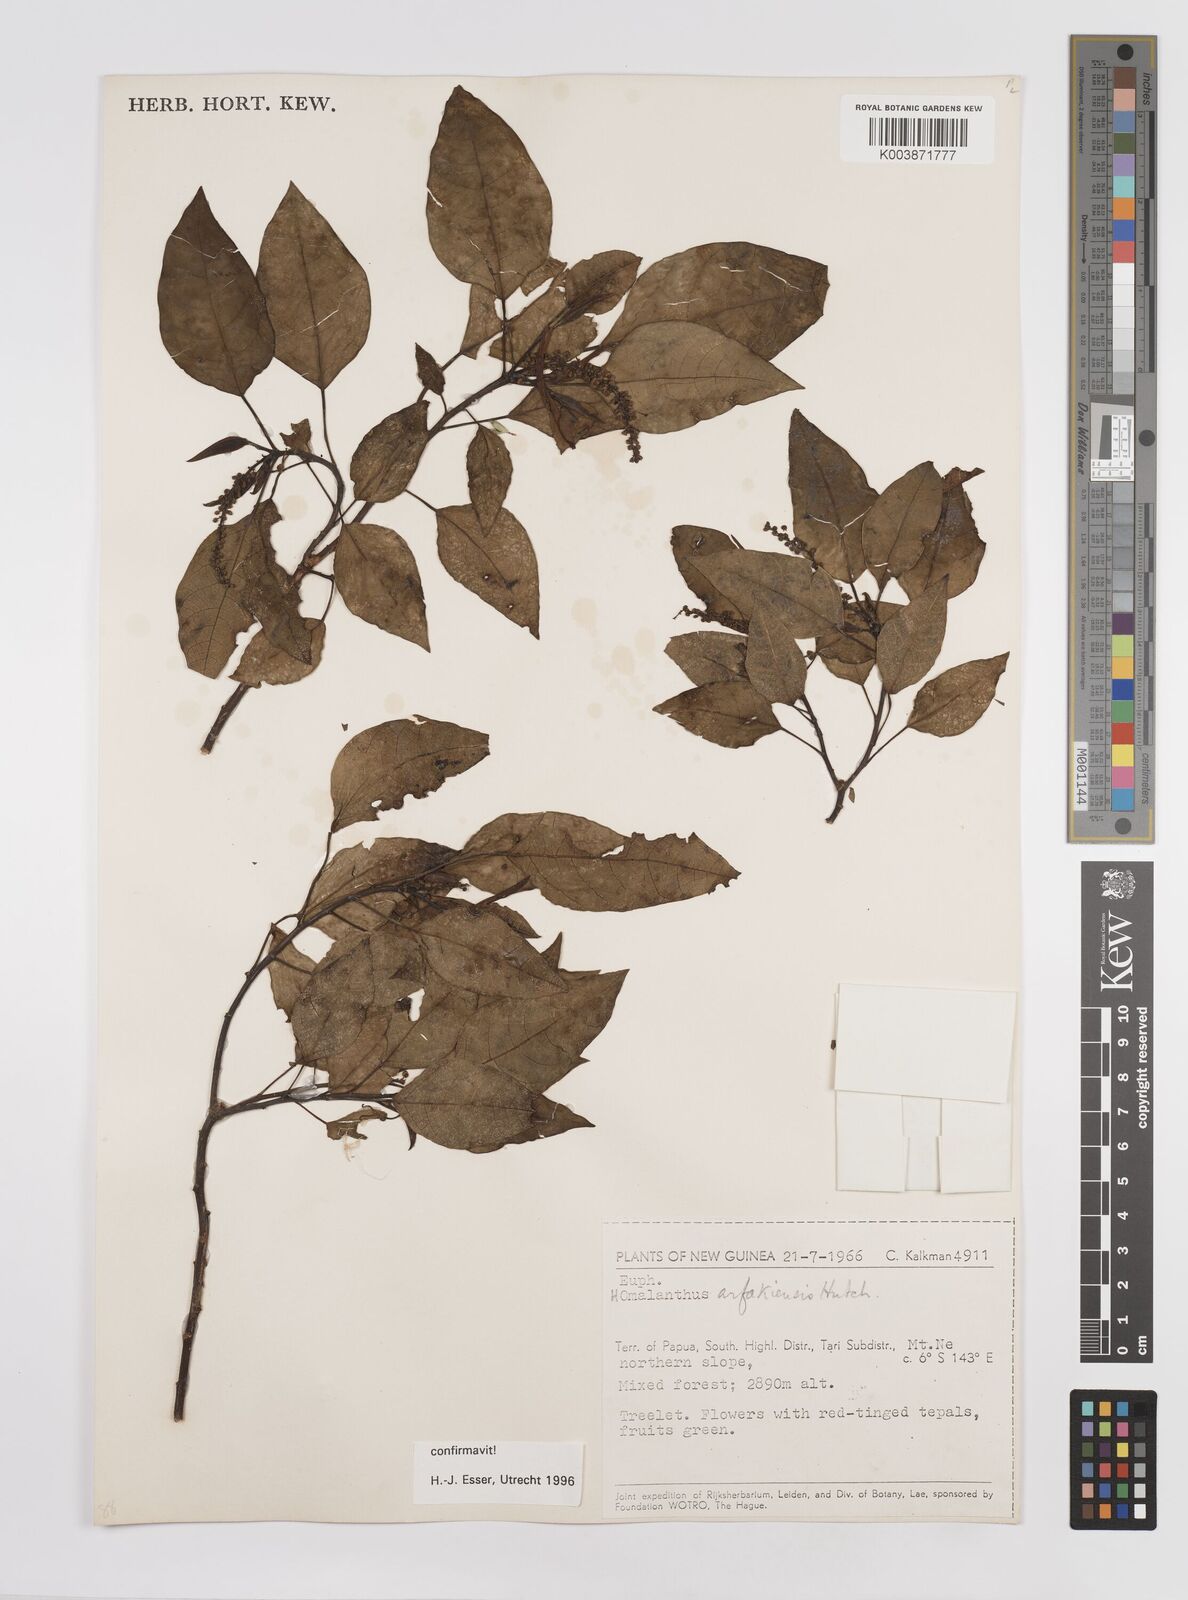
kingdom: Plantae
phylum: Tracheophyta
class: Magnoliopsida
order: Malpighiales
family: Euphorbiaceae
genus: Homalanthus
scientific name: Homalanthus arfakiensis
